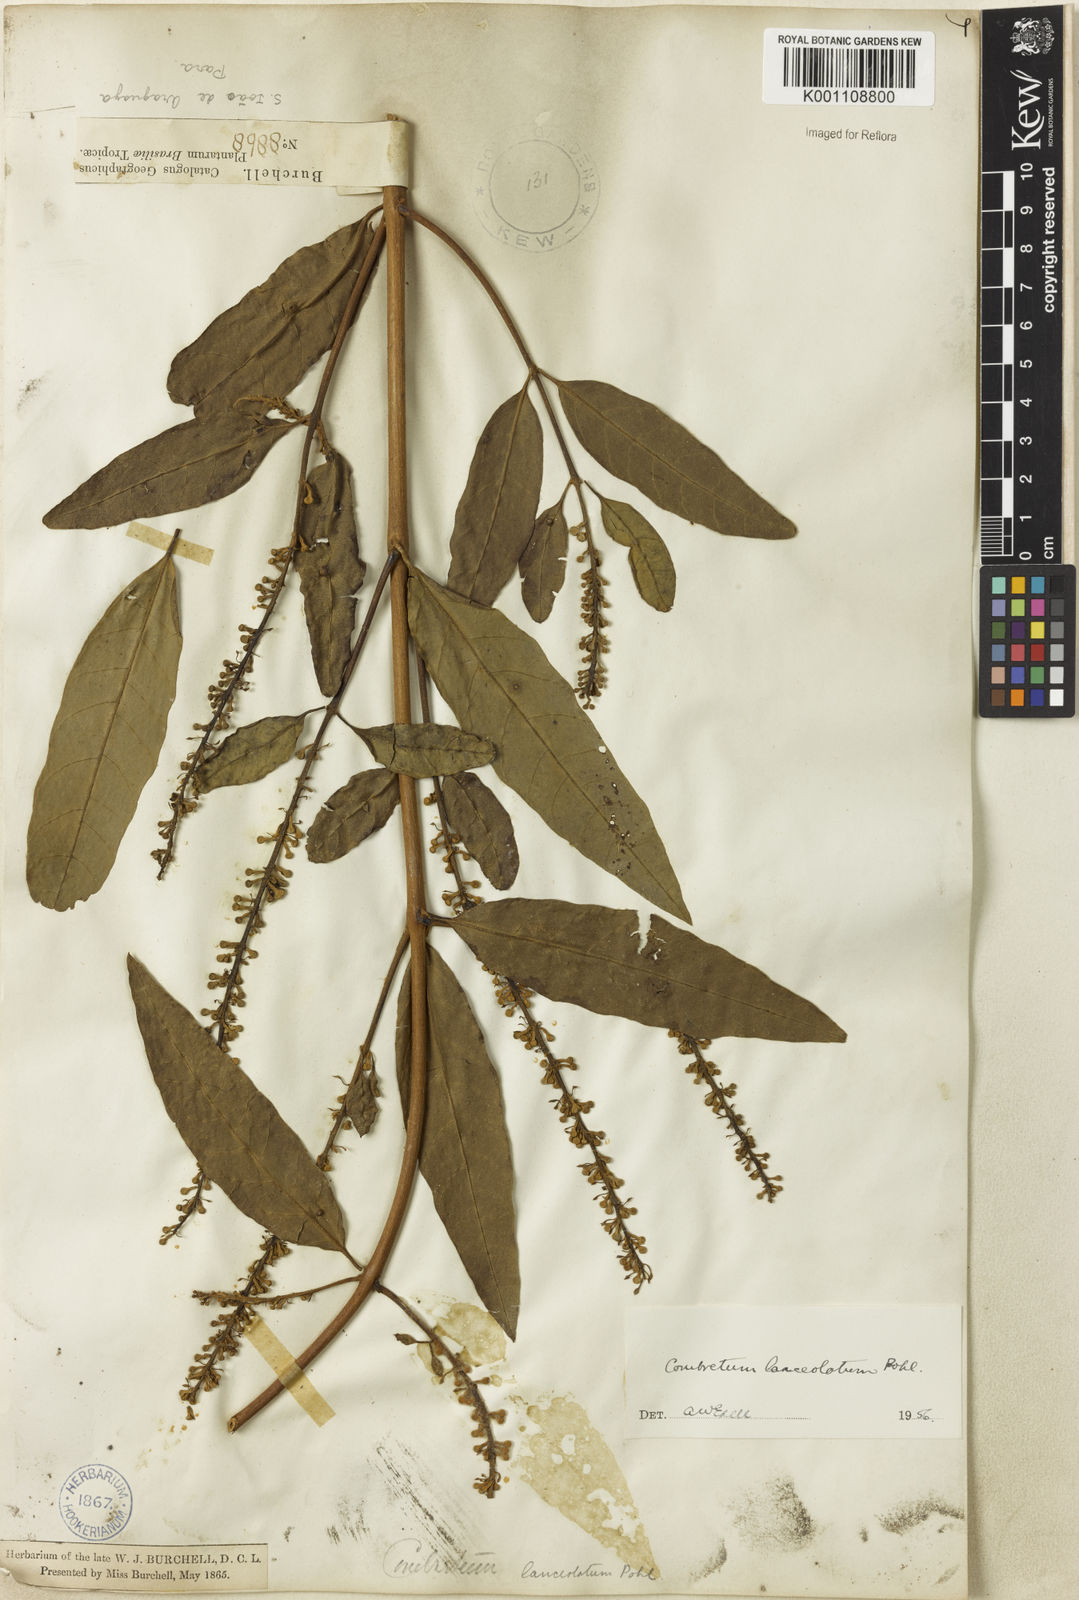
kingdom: Plantae
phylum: Tracheophyta
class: Magnoliopsida
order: Myrtales
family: Combretaceae
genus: Combretum
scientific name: Combretum lanceolatum
